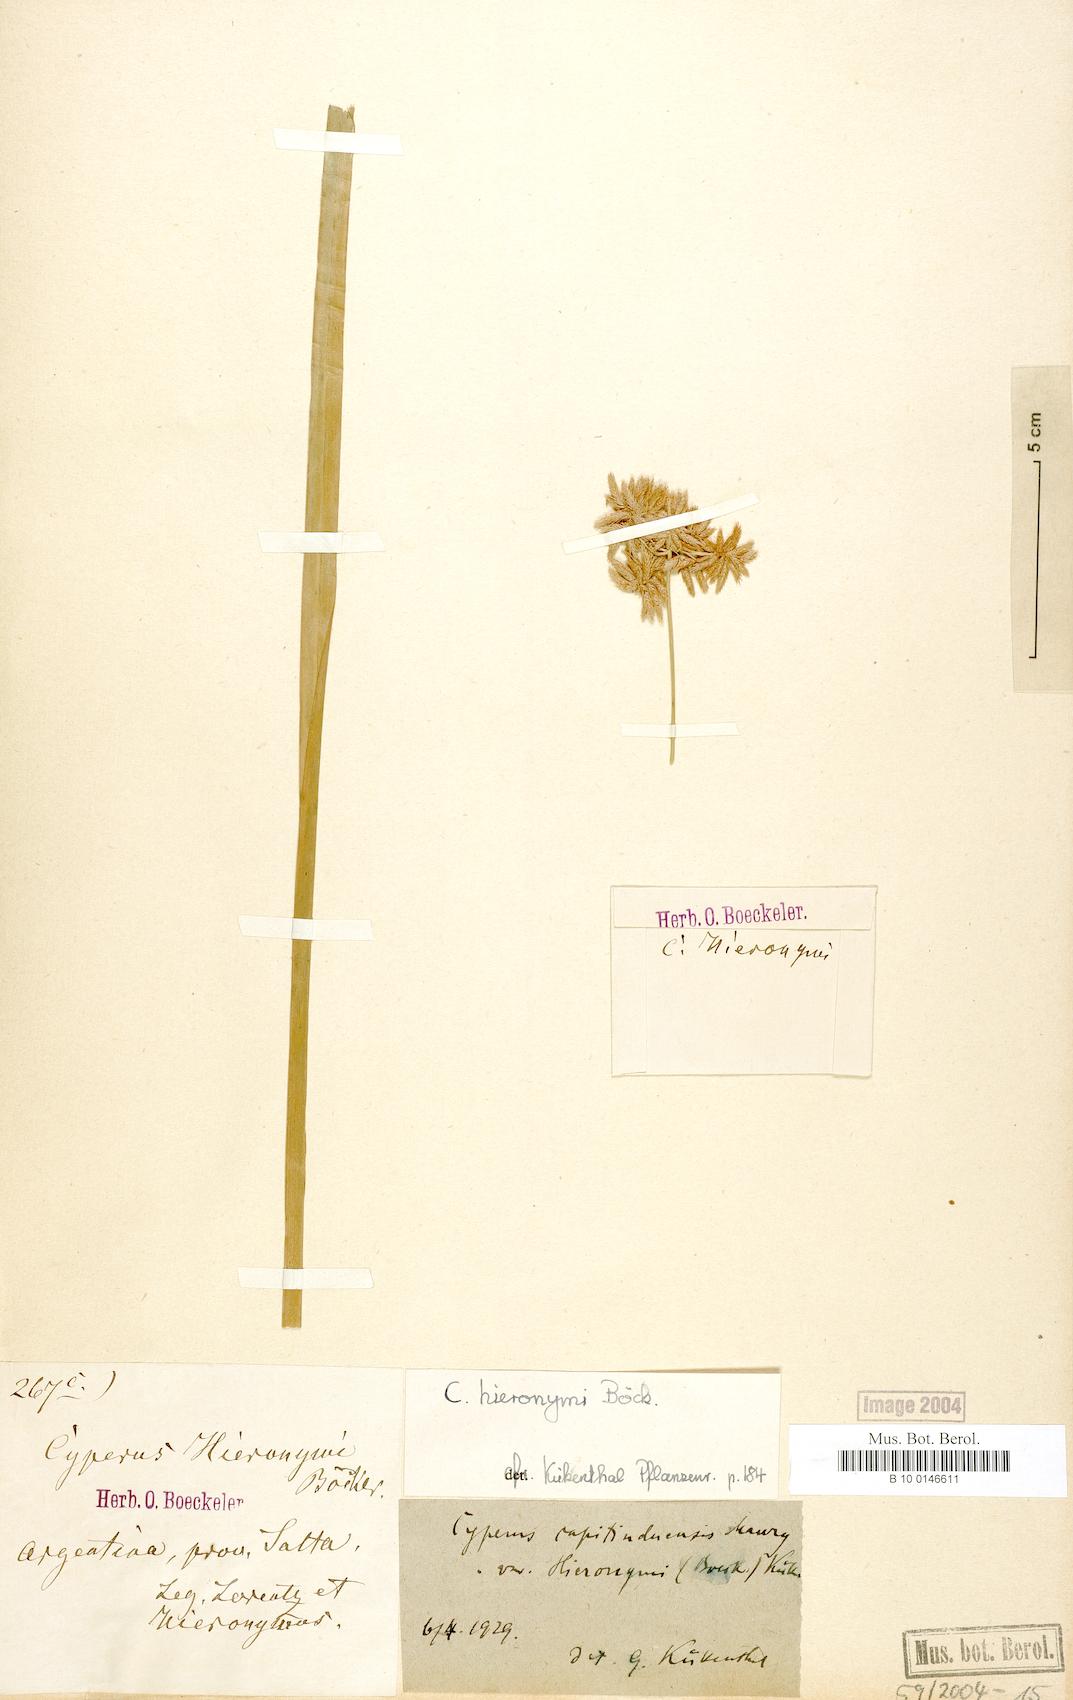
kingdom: Plantae
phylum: Tracheophyta
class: Liliopsida
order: Poales
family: Cyperaceae
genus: Cyperus
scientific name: Cyperus hieronymi
